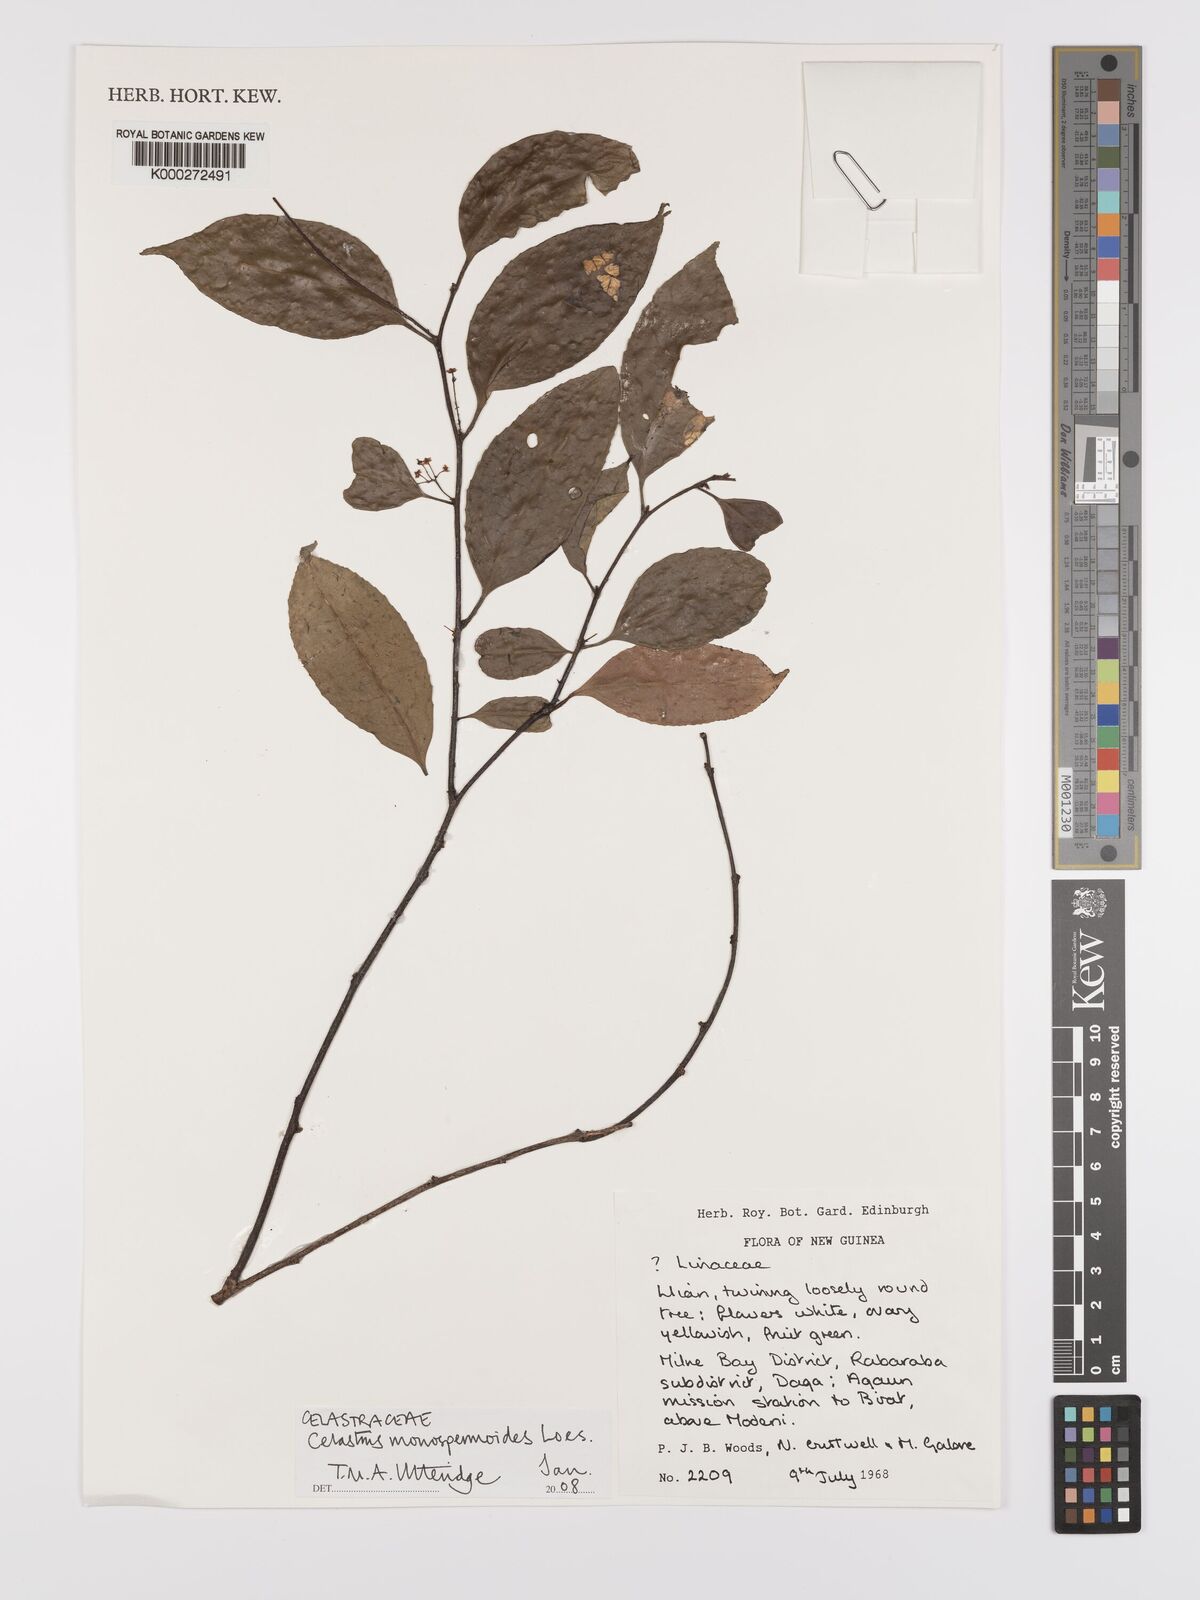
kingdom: Plantae
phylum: Tracheophyta
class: Magnoliopsida
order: Celastrales
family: Celastraceae
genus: Celastrus
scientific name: Celastrus monospermoides
